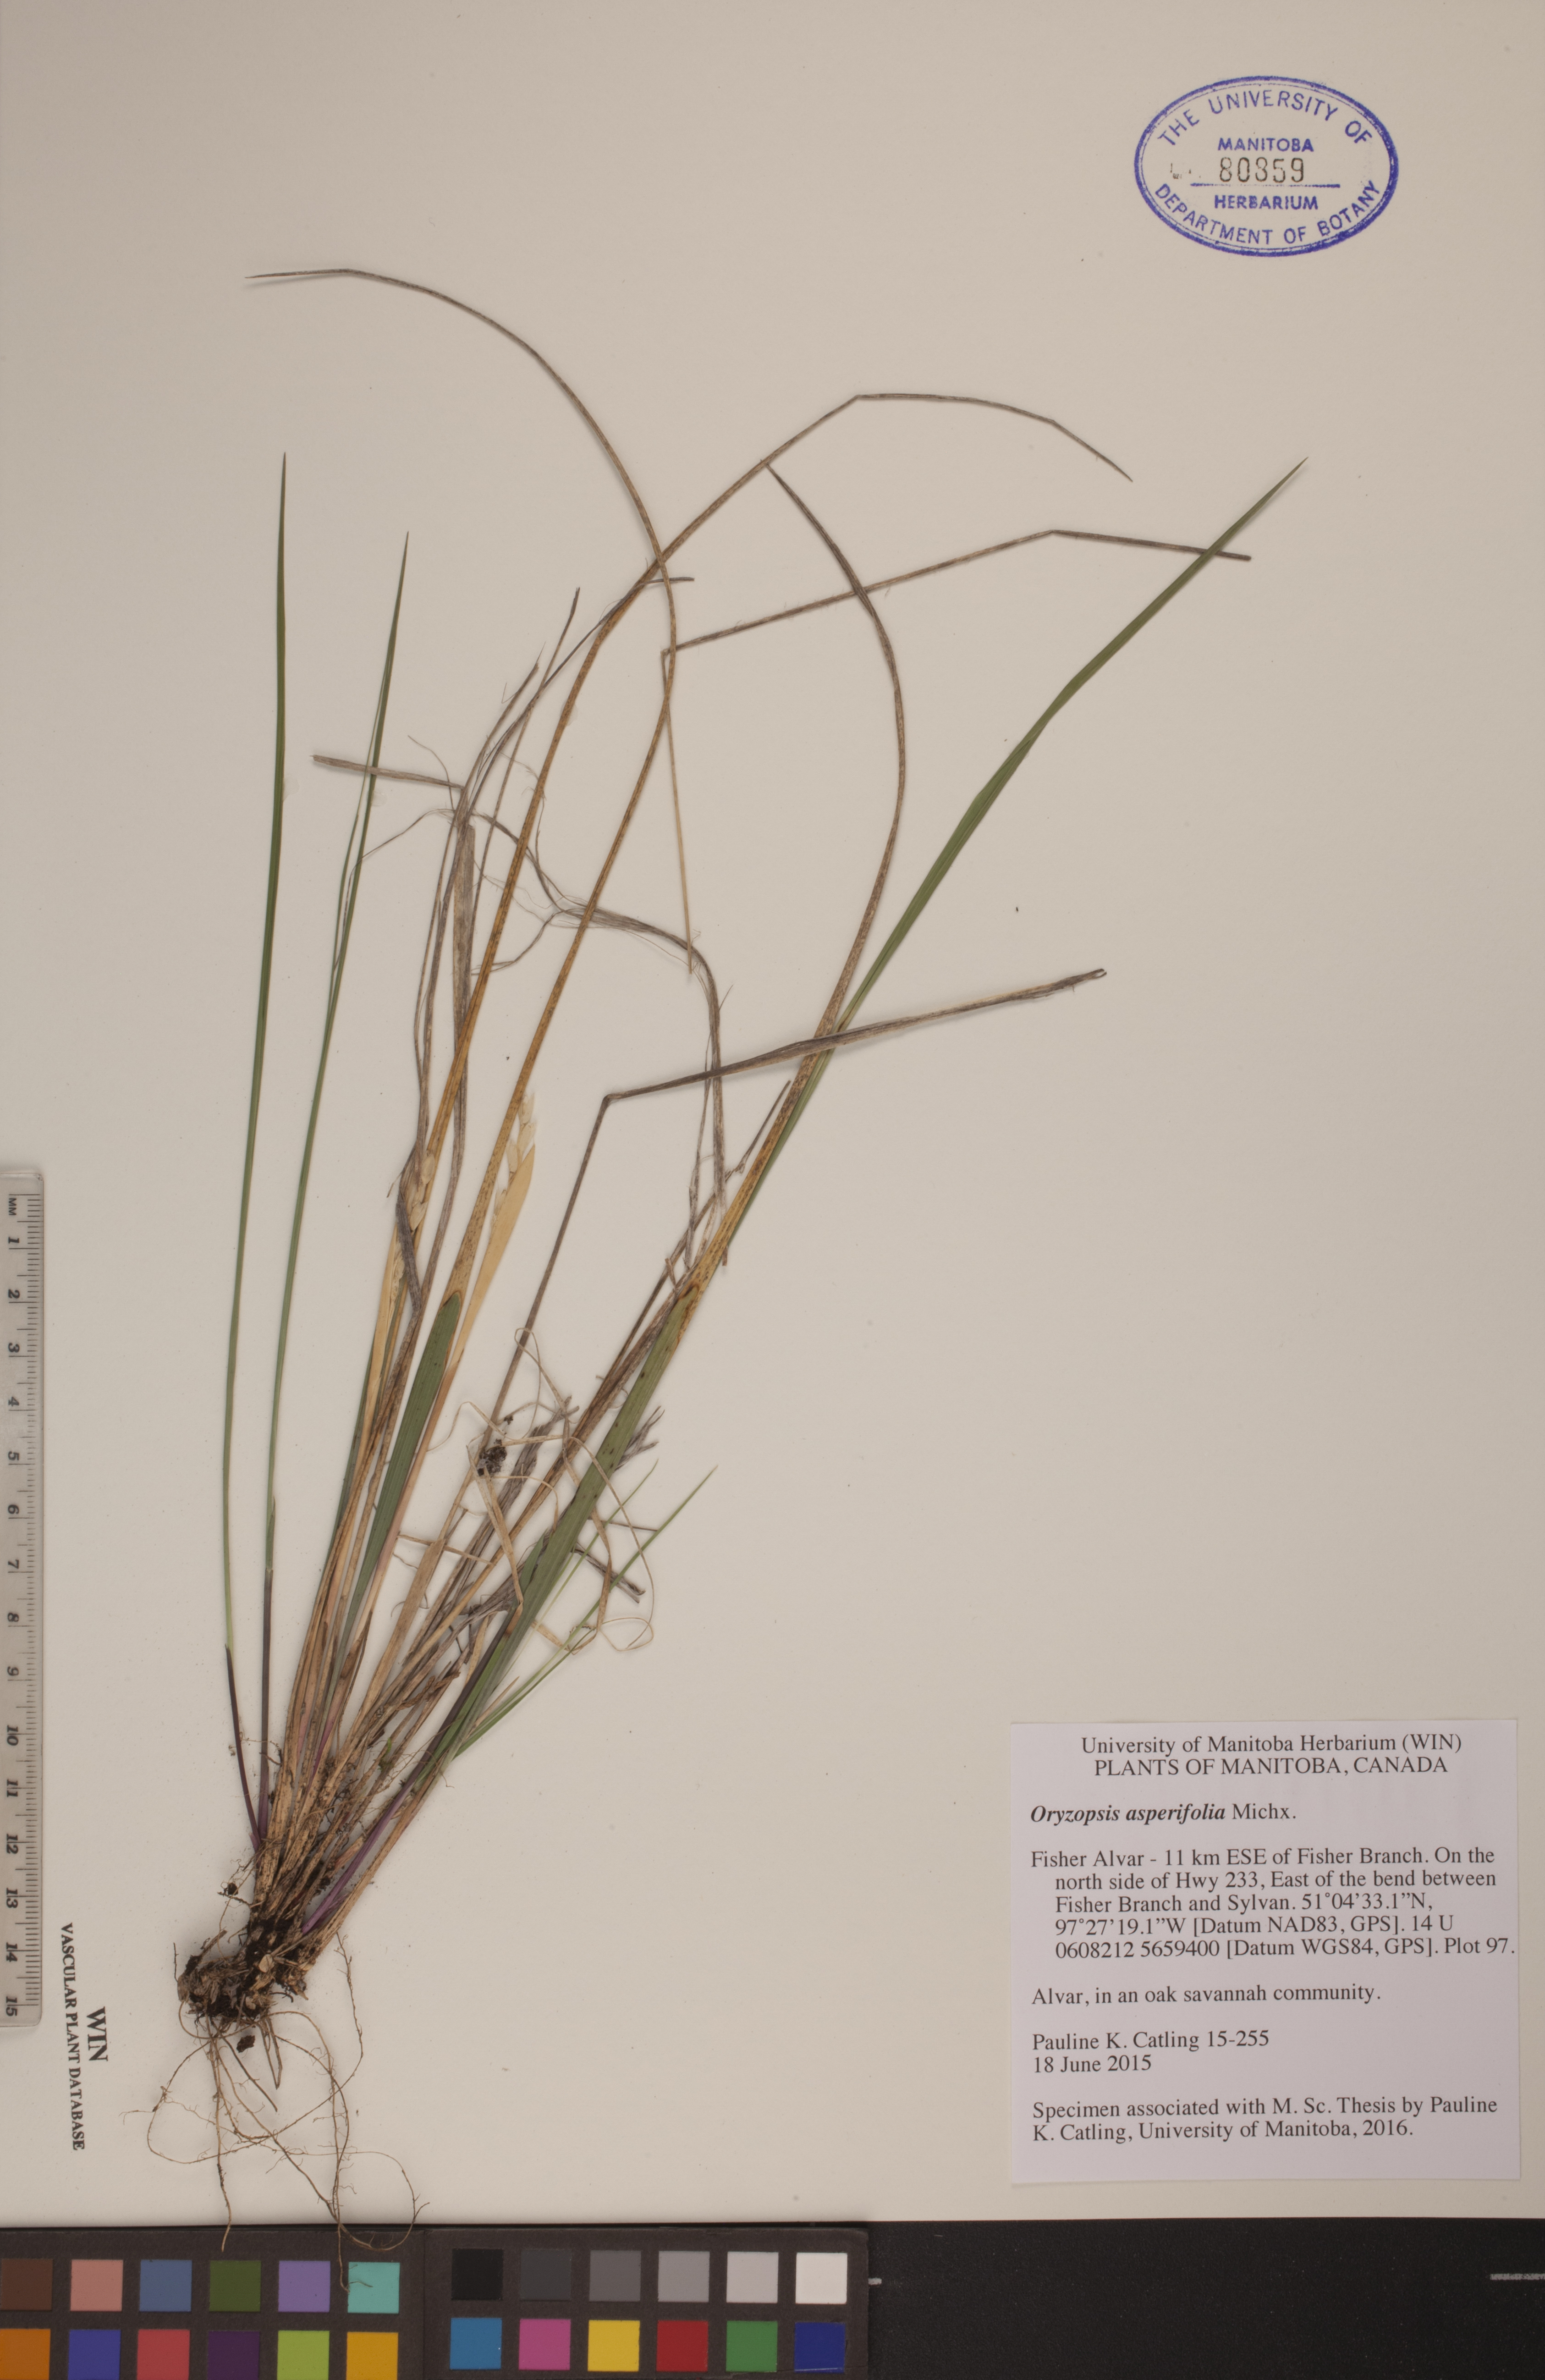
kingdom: Plantae
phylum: Tracheophyta
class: Liliopsida
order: Poales
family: Poaceae
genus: Oryzopsis
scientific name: Oryzopsis asperifolia
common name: Rough-leaved mountain rice
